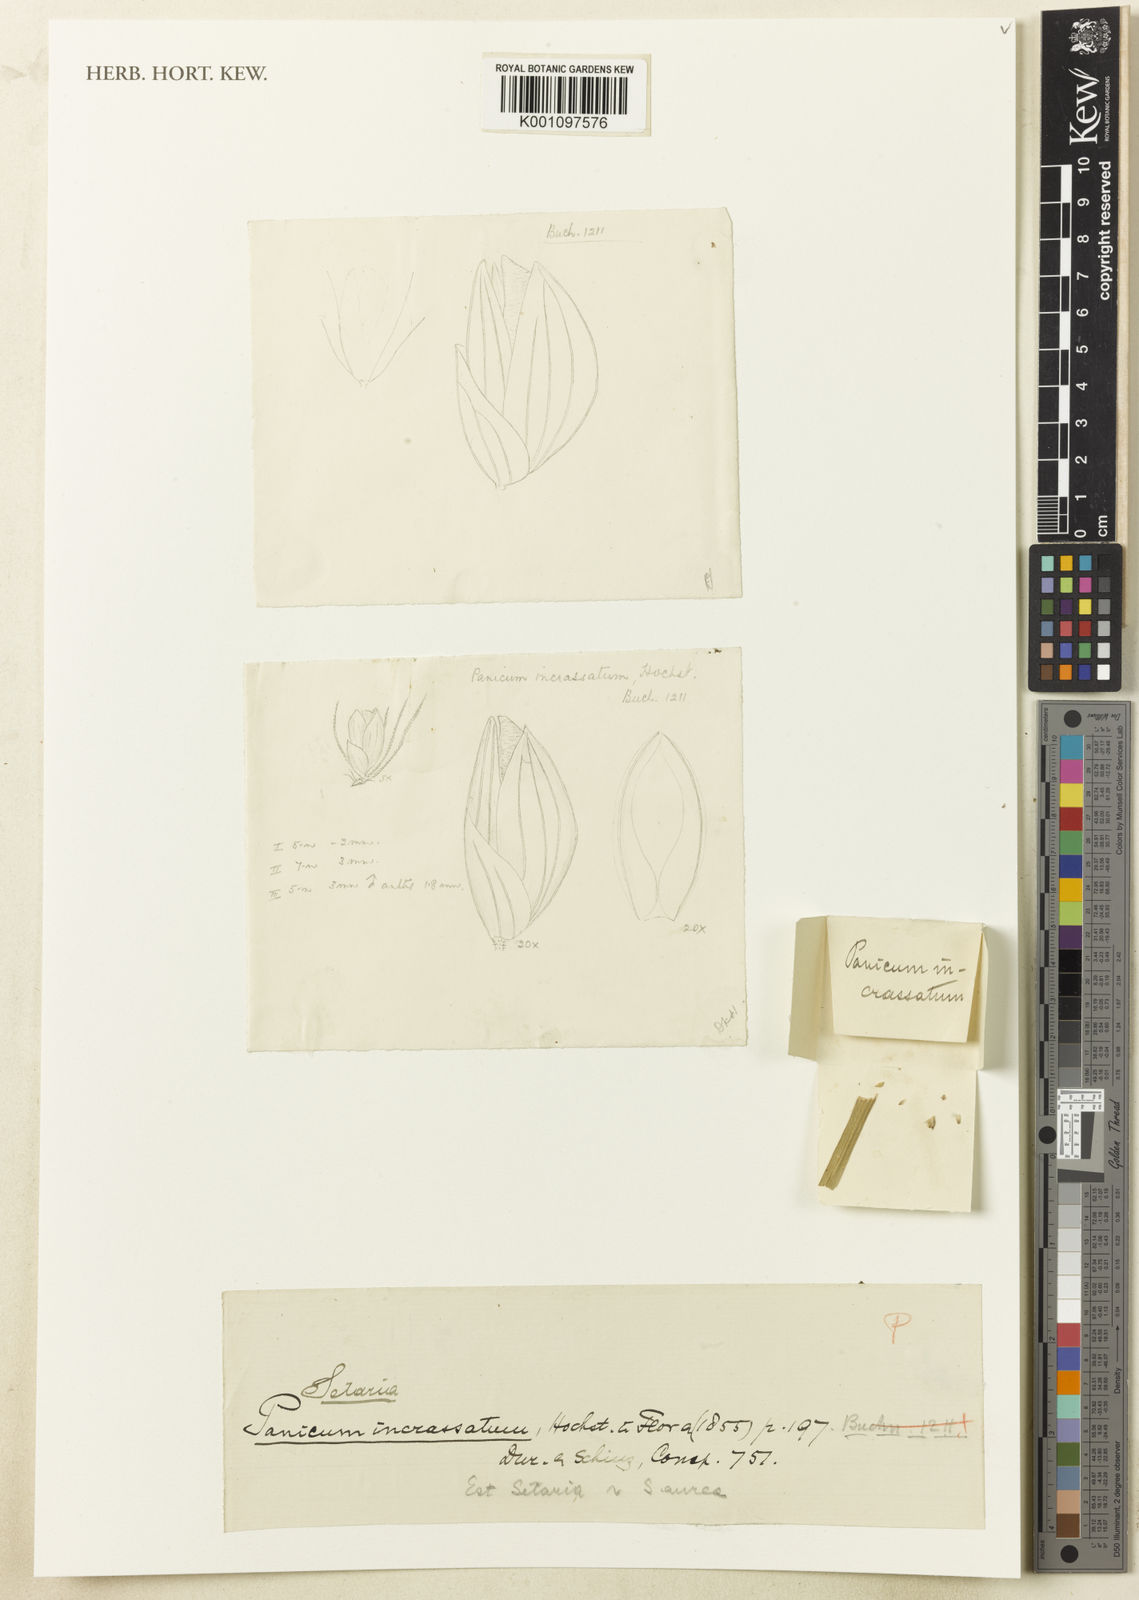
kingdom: Plantae
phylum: Tracheophyta
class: Liliopsida
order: Poales
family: Poaceae
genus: Setaria
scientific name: Setaria incrassata
